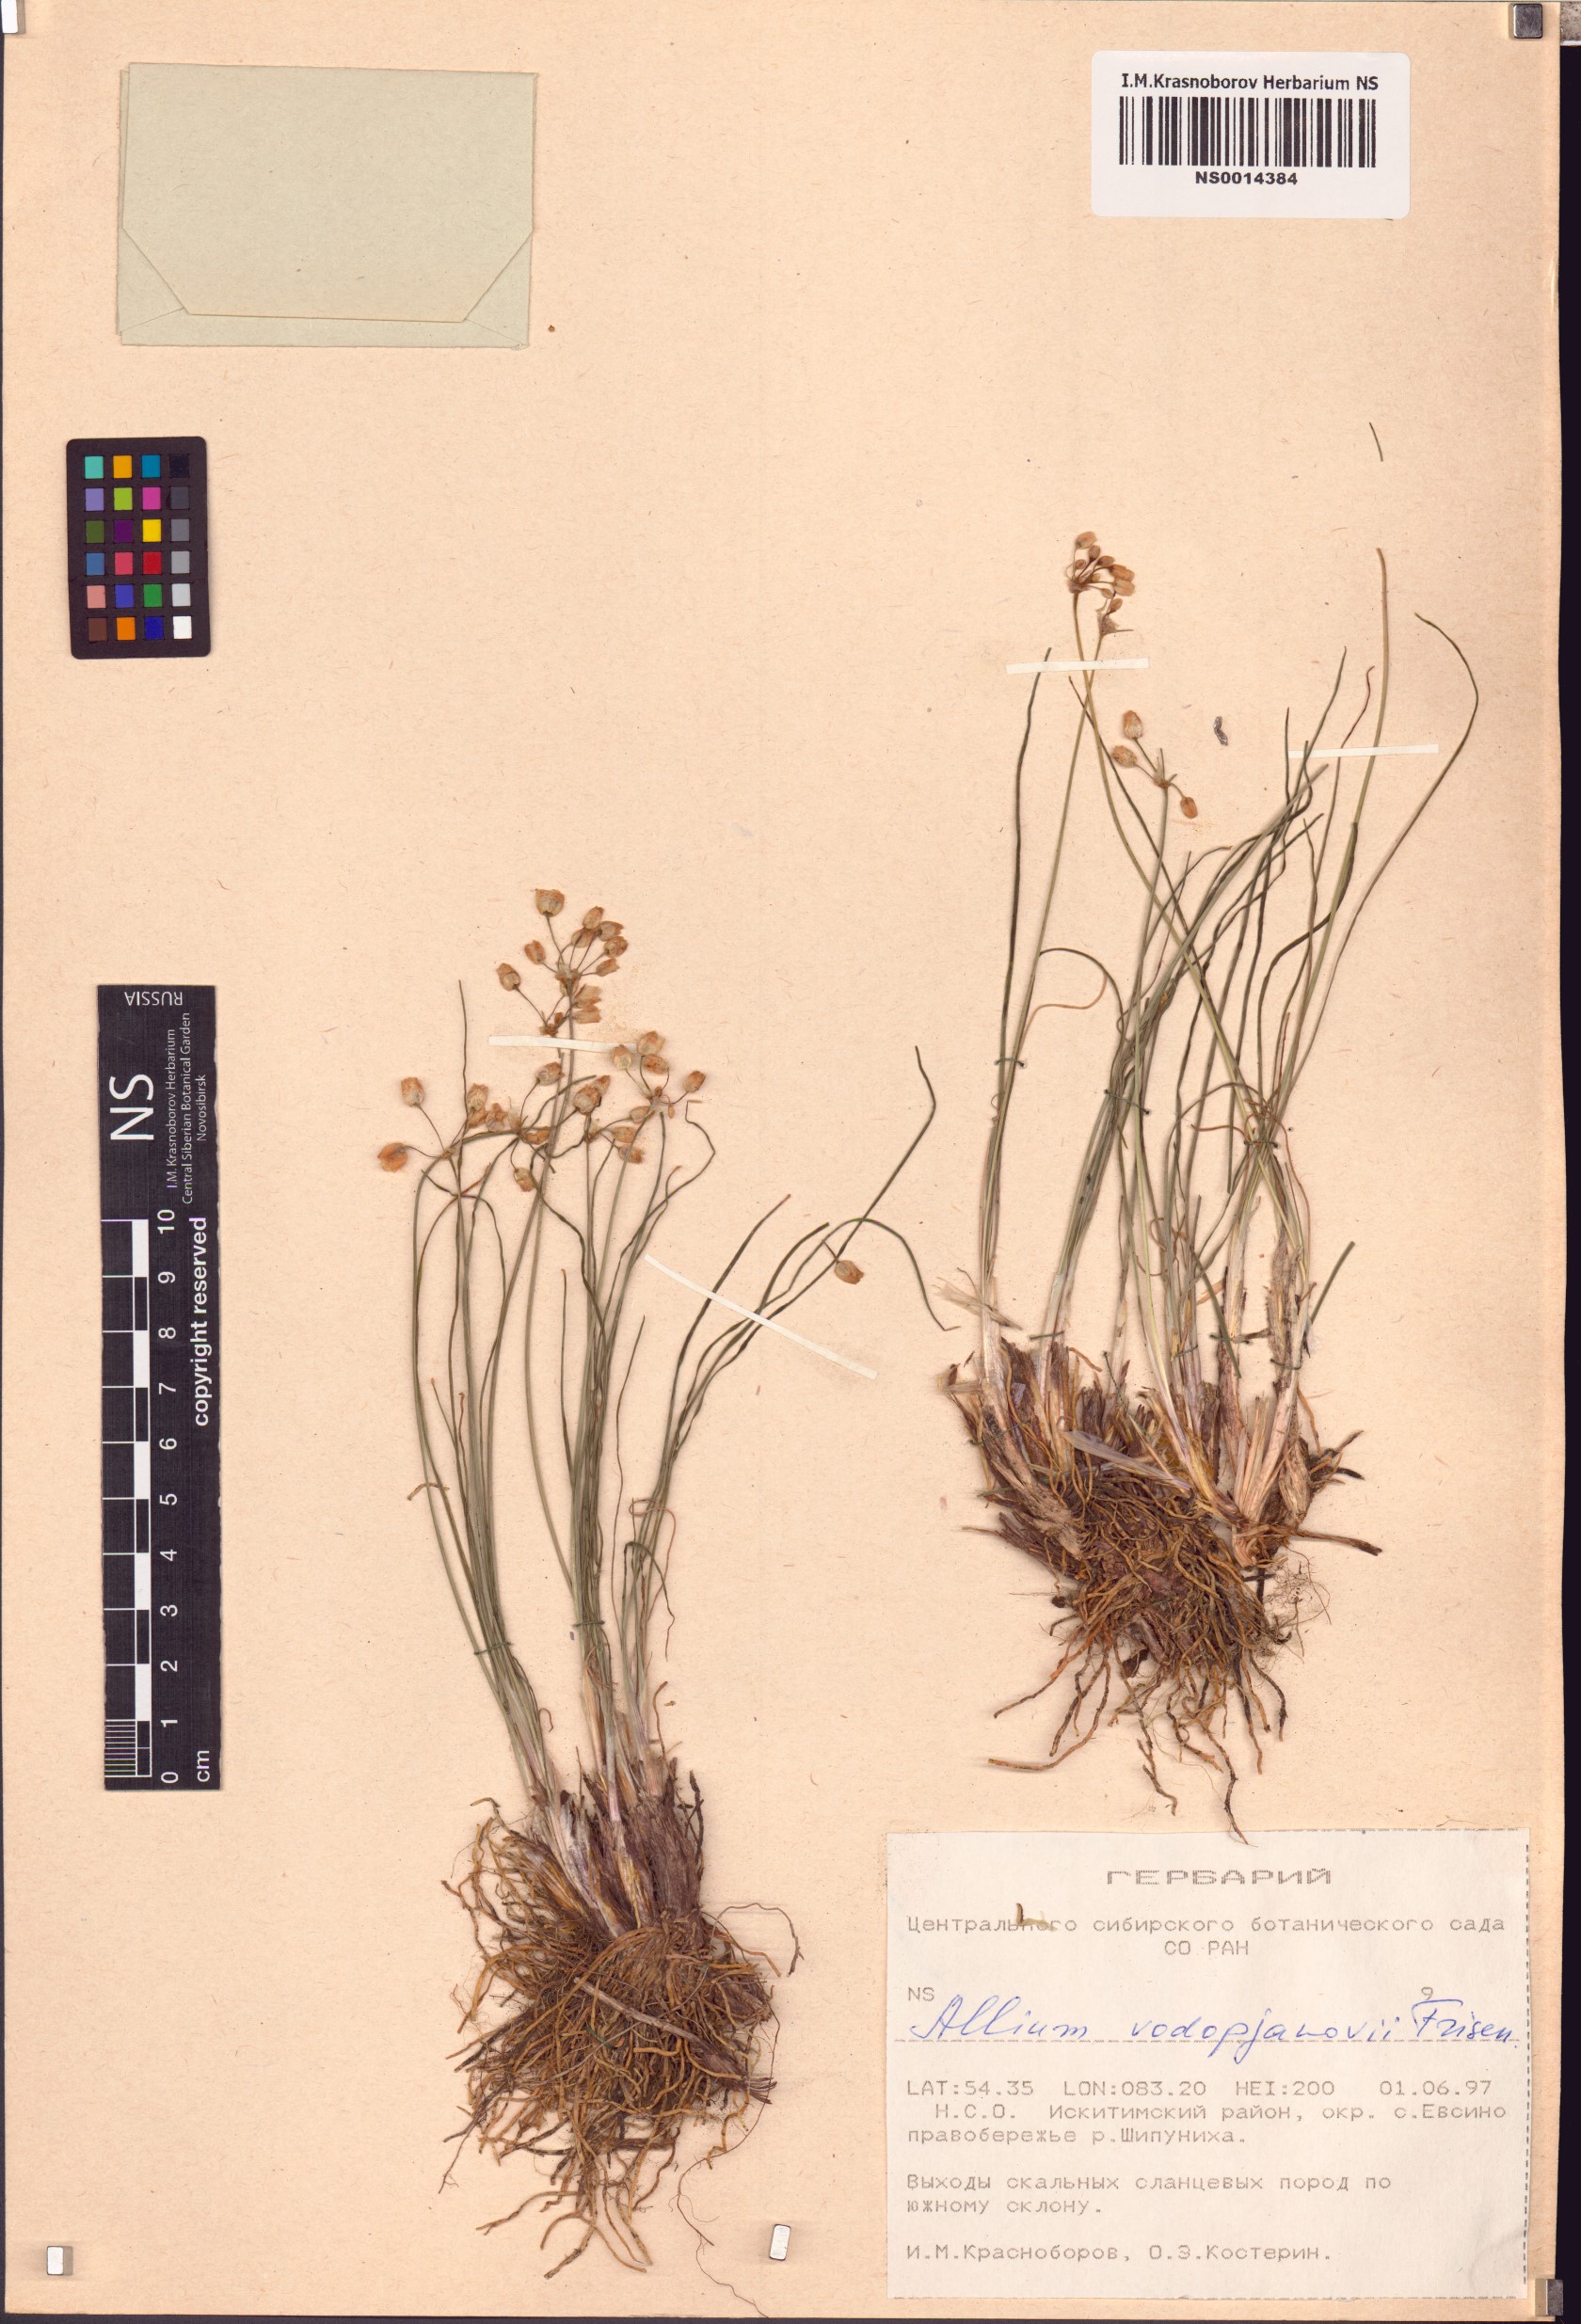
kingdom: Plantae
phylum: Tracheophyta
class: Liliopsida
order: Asparagales
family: Amaryllidaceae
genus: Allium
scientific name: Allium vodopjanovae
